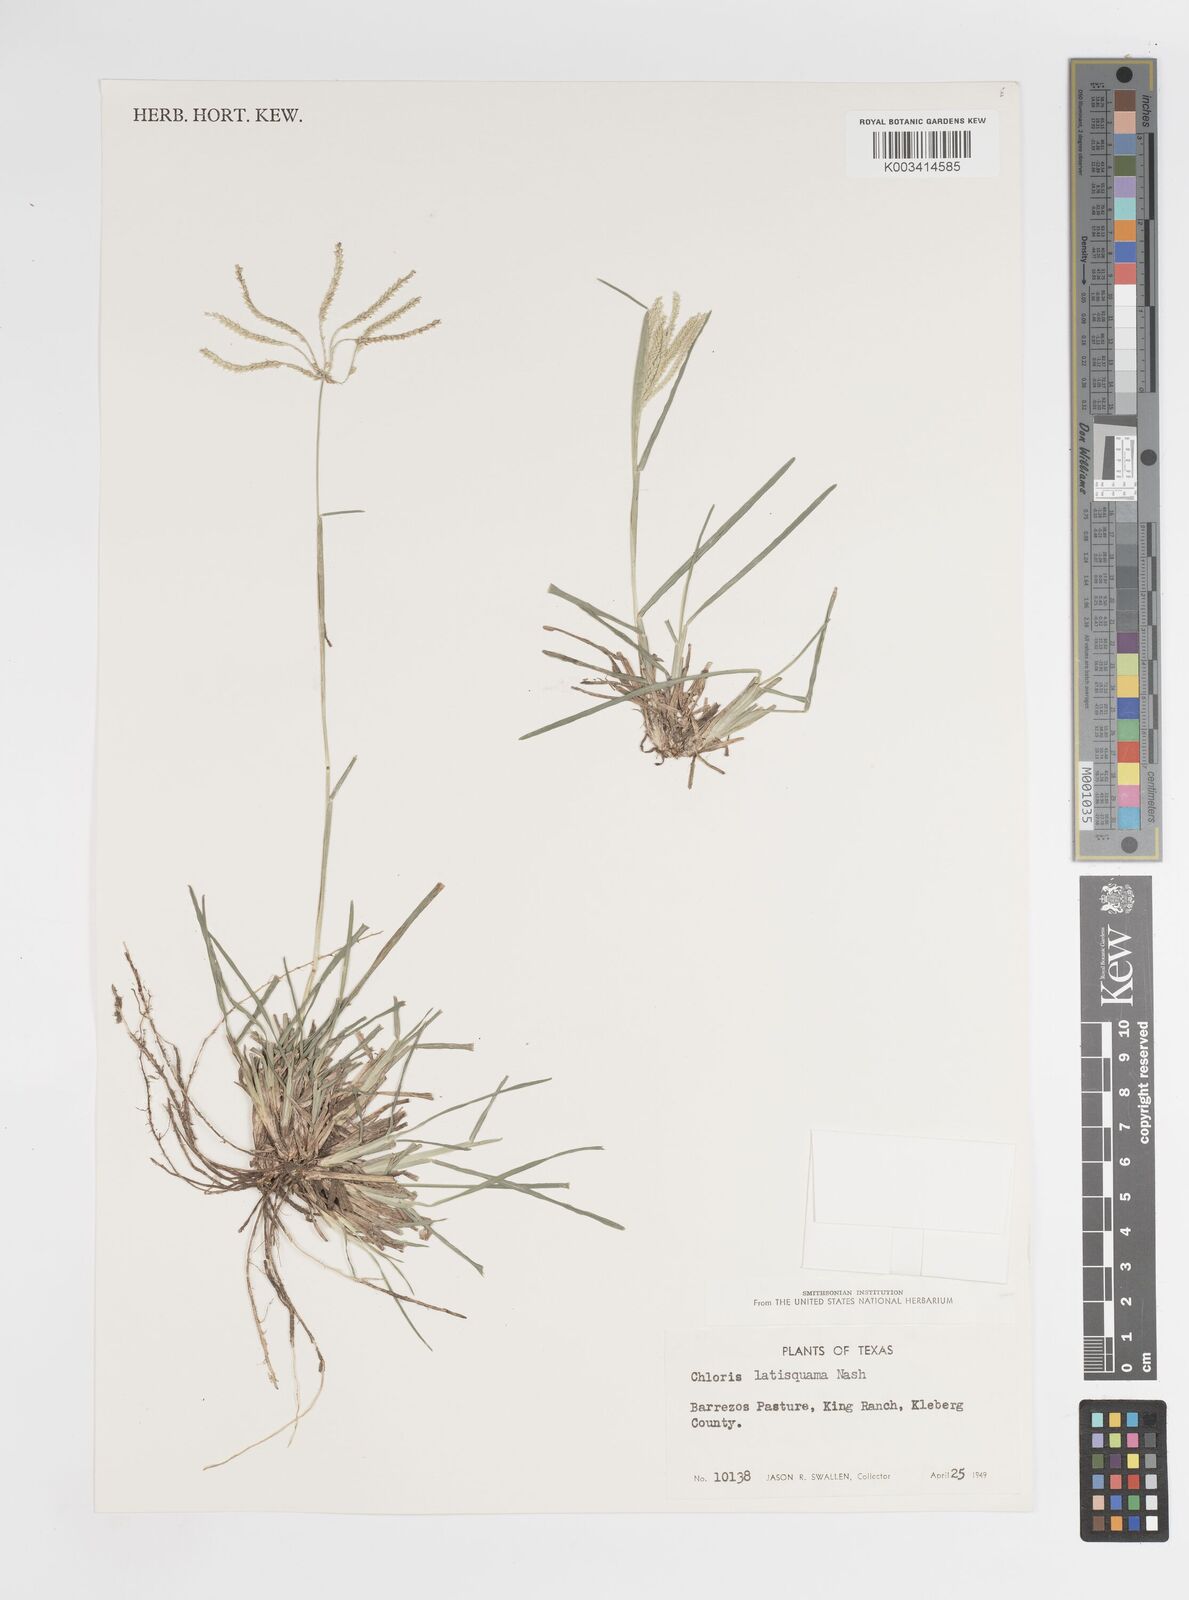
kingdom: Plantae
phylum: Tracheophyta
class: Liliopsida
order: Poales
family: Poaceae
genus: Chloris
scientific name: Chloris subdolichostachya
